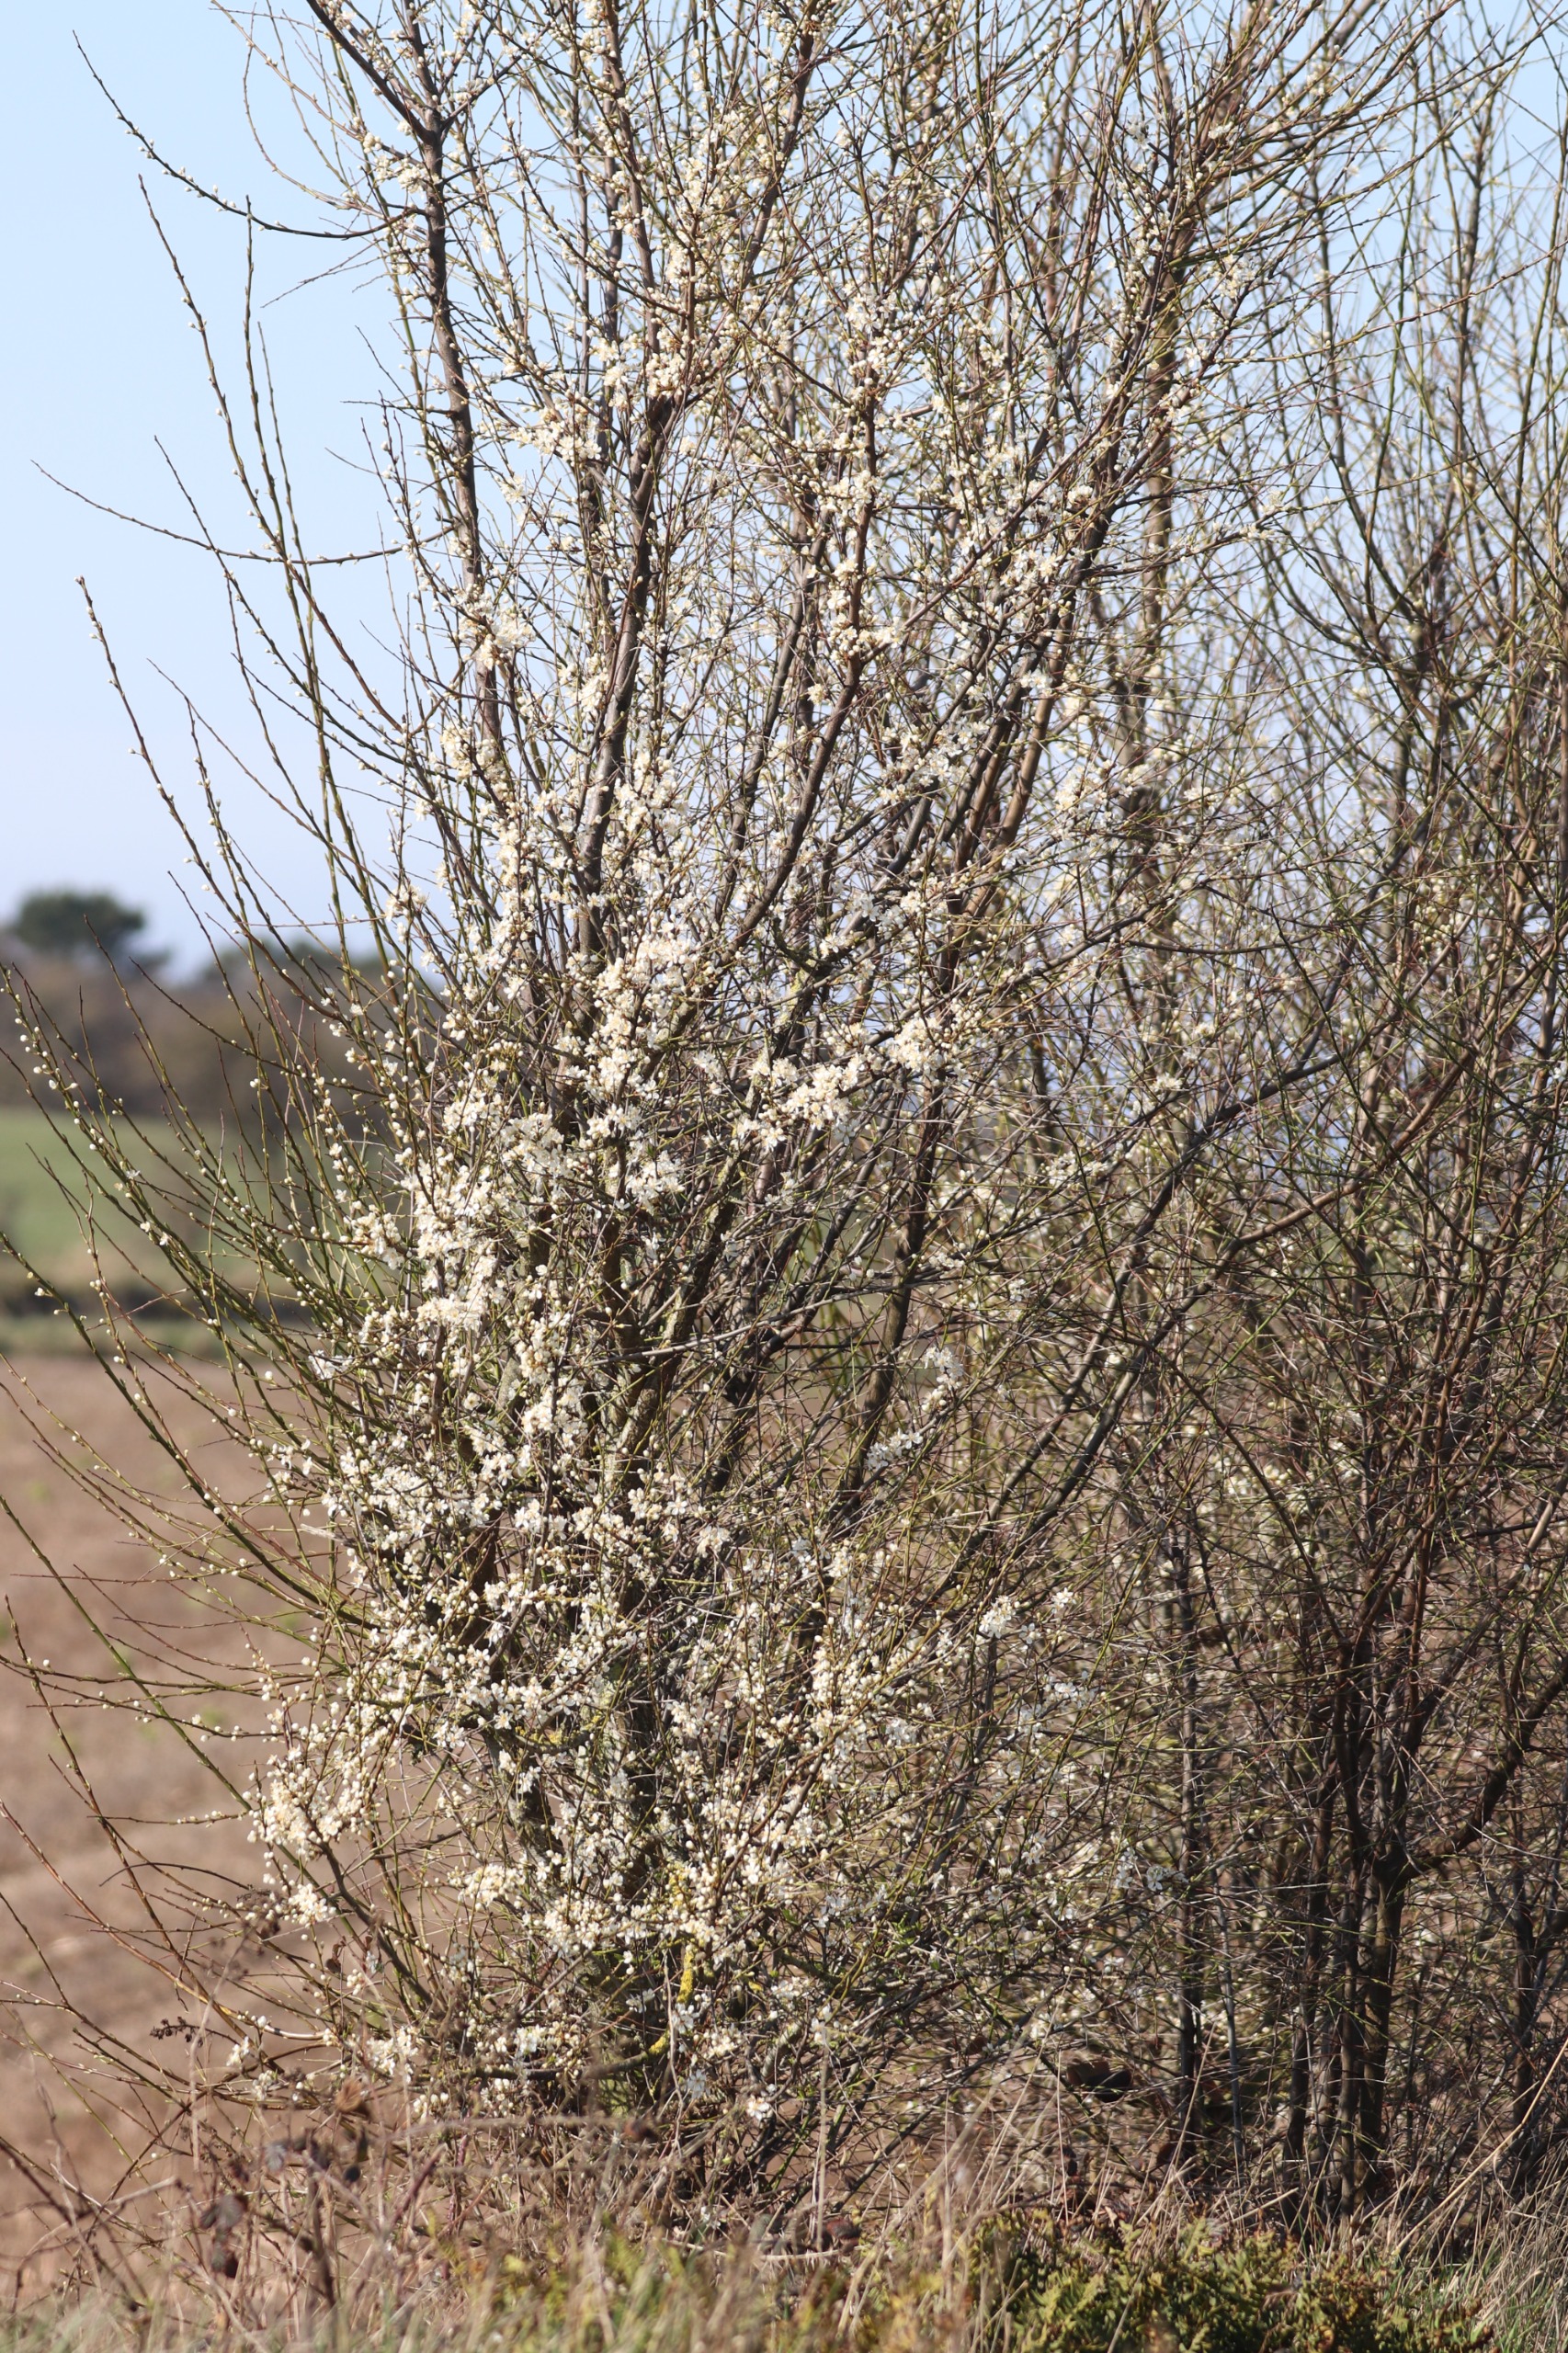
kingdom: Plantae
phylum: Tracheophyta
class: Magnoliopsida
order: Rosales
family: Rosaceae
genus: Prunus
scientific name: Prunus cerasifera
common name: Mirabel
